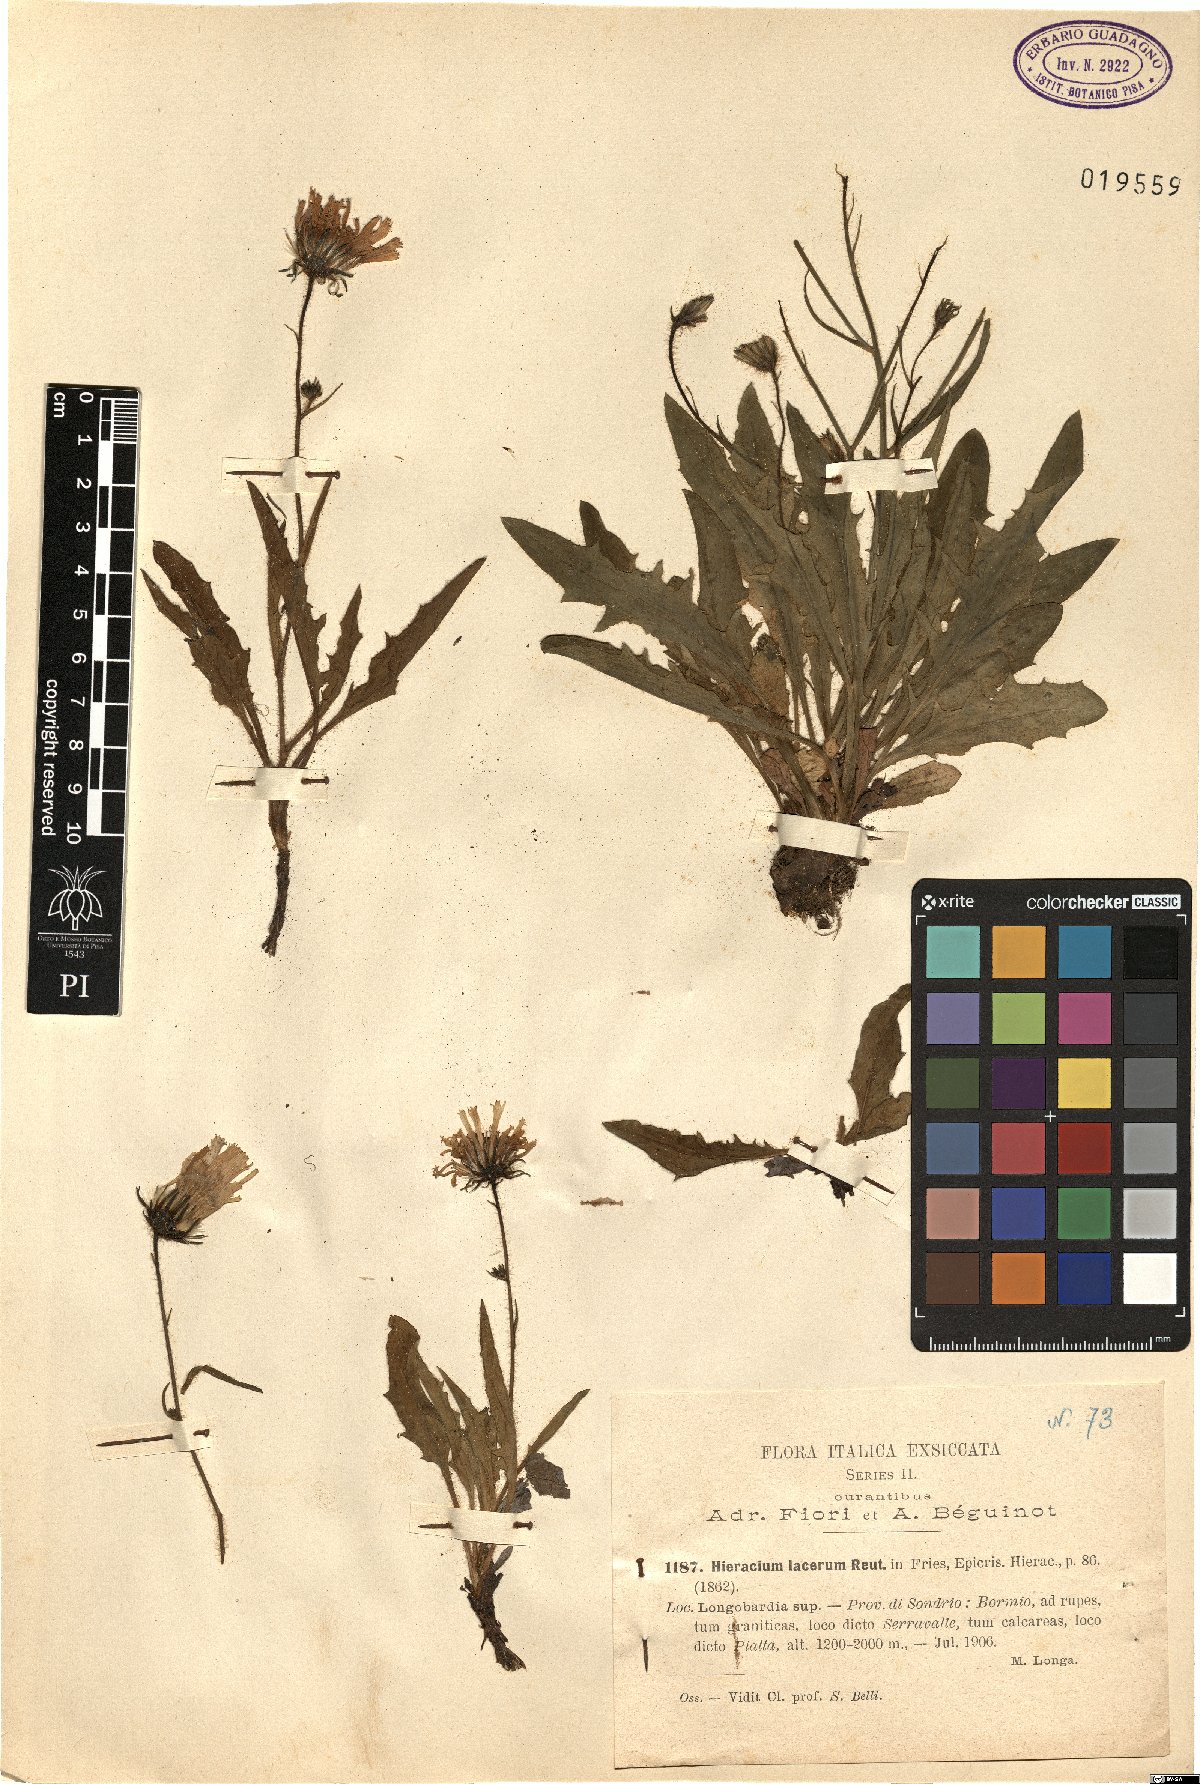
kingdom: Plantae
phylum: Tracheophyta
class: Magnoliopsida
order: Asterales
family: Asteraceae
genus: Hieracium
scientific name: Hieracium humile
